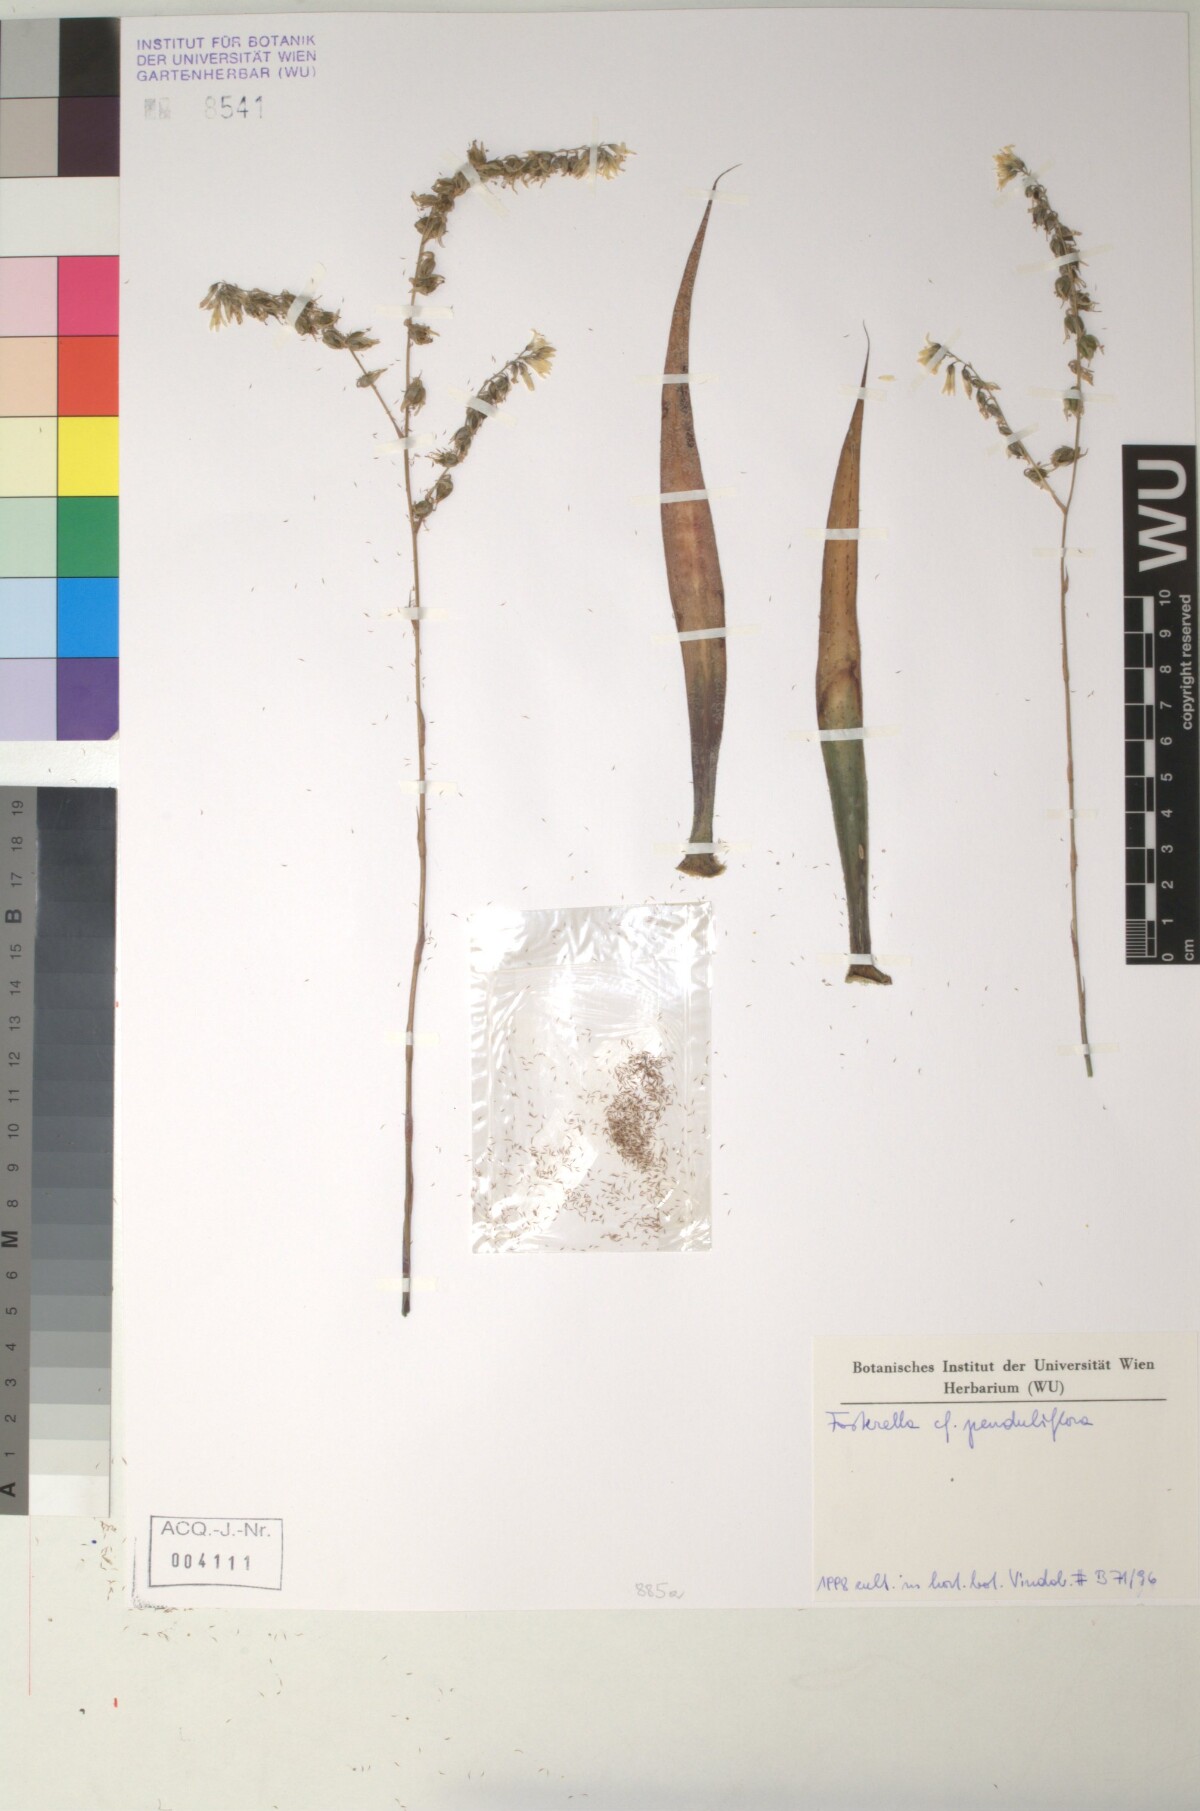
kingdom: Plantae
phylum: Tracheophyta
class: Liliopsida
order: Poales
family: Bromeliaceae
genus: Fosterella
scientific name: Fosterella penduliflora
